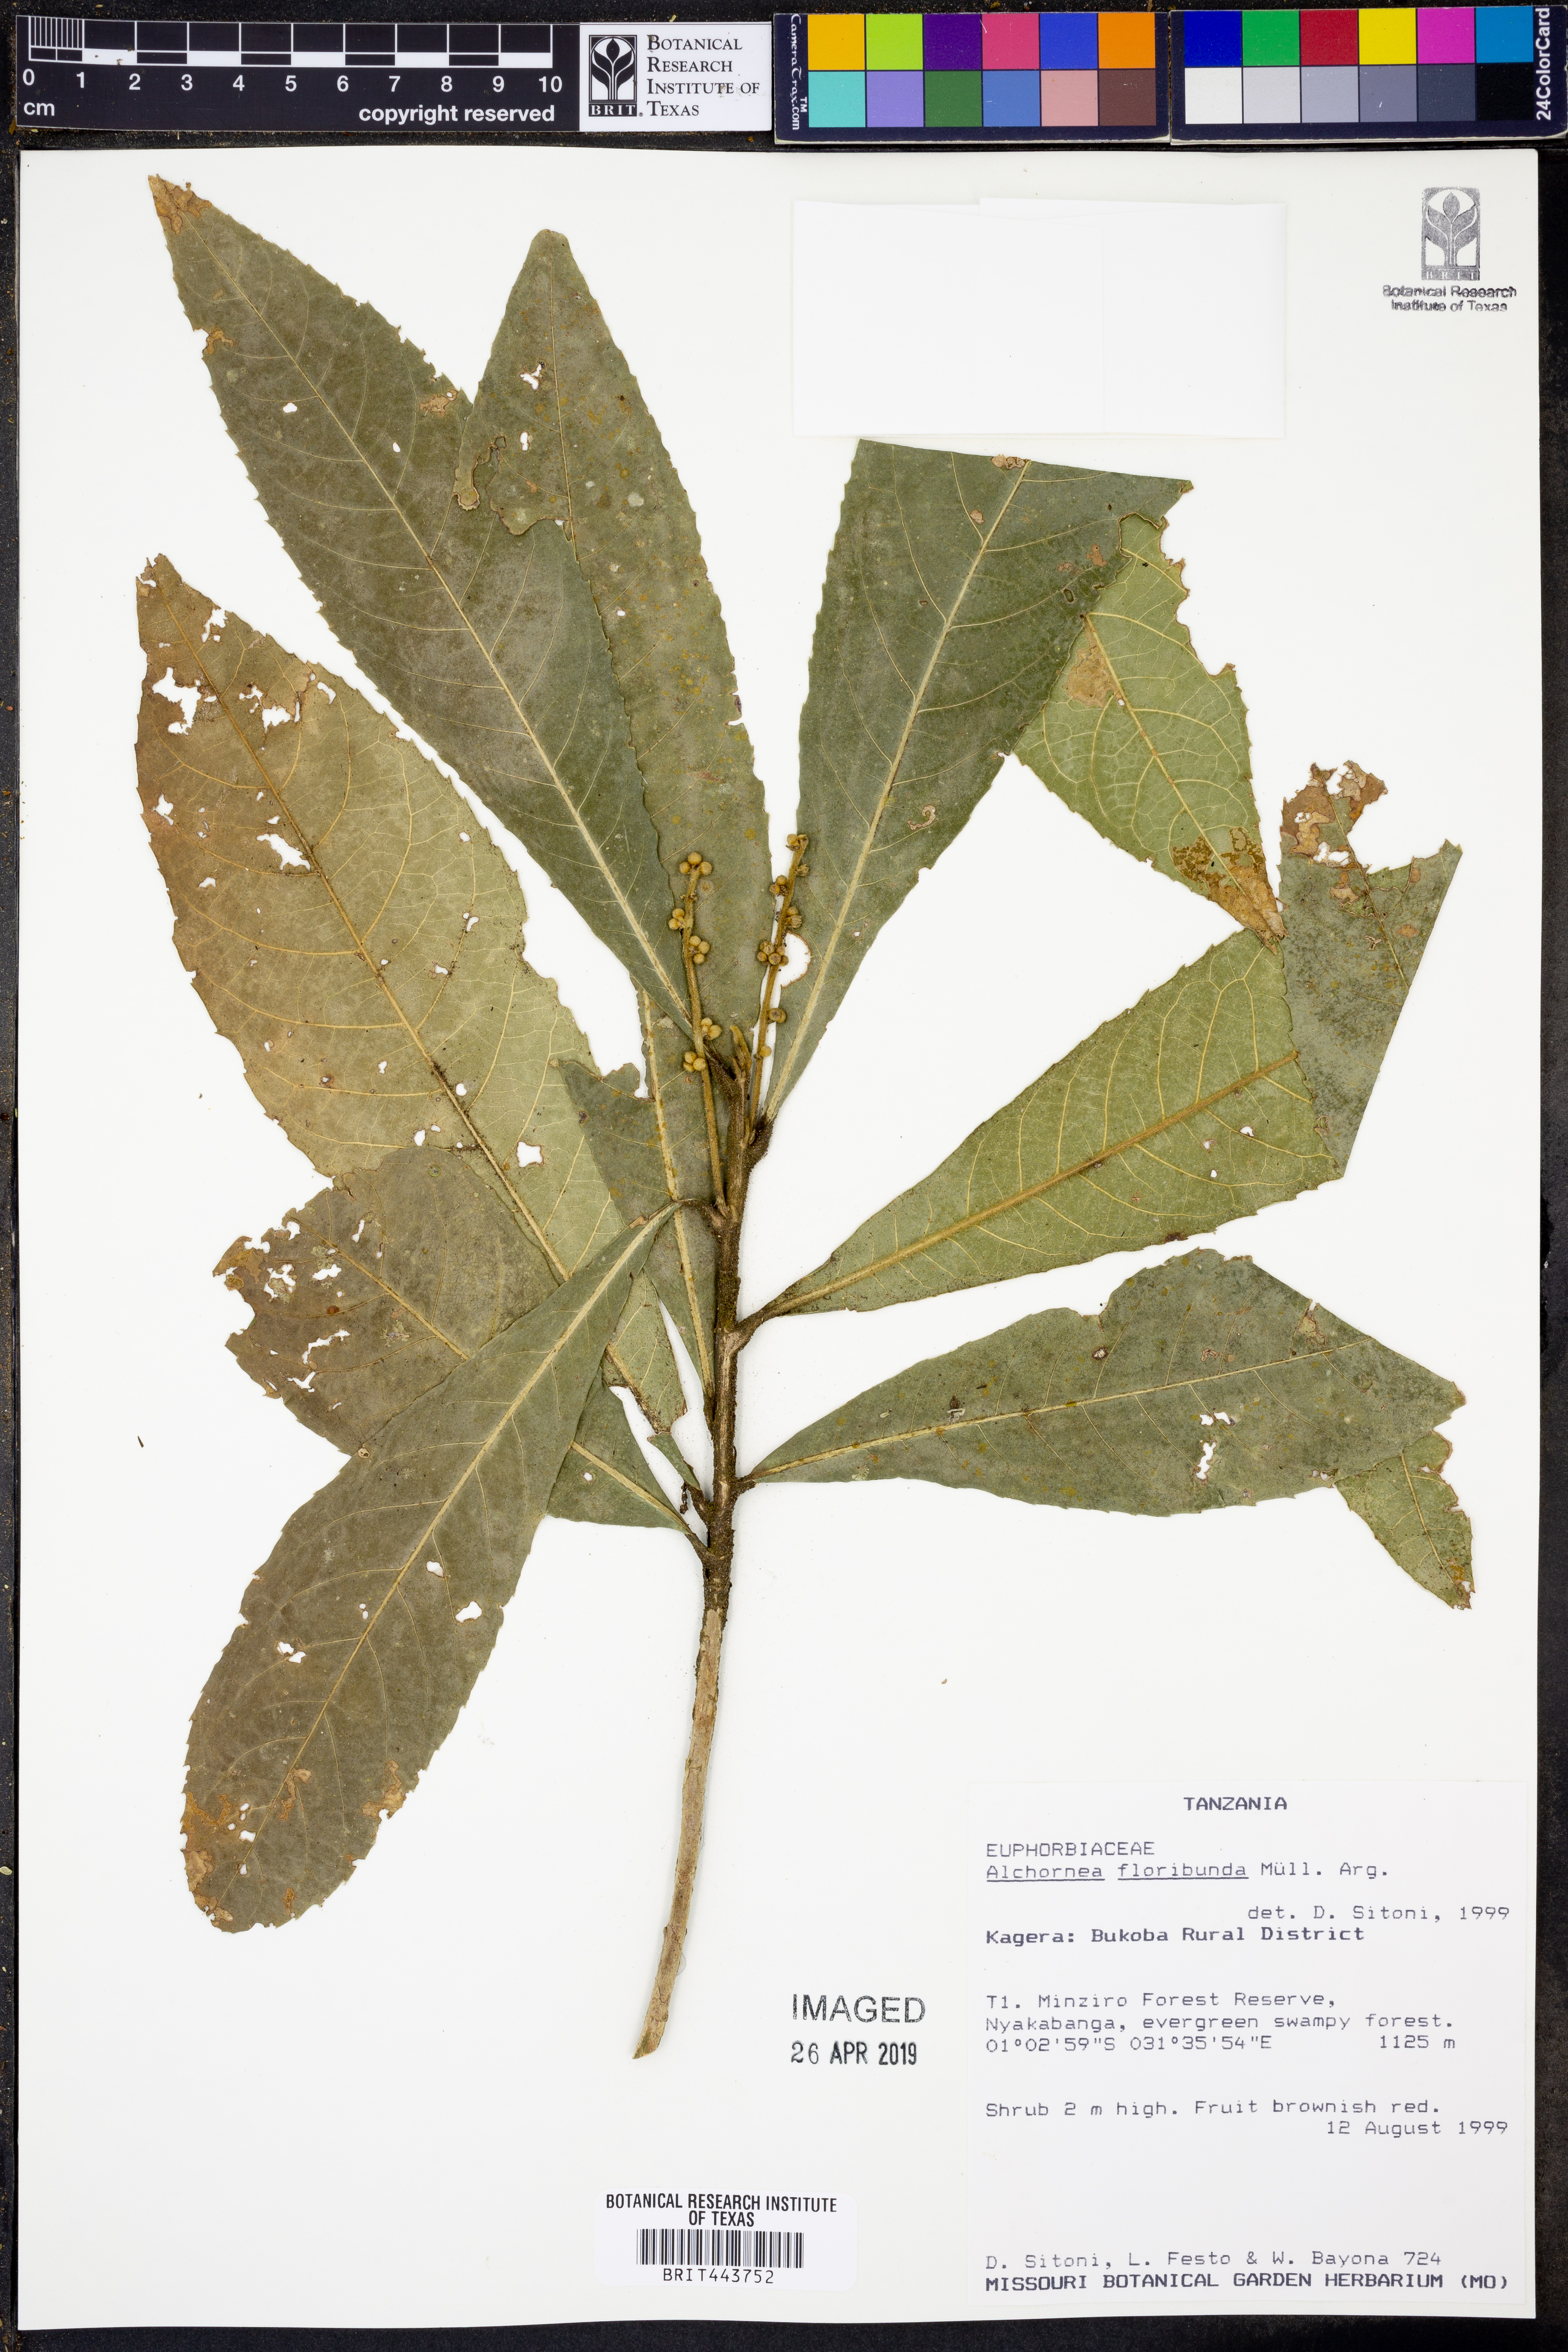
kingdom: Plantae
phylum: Tracheophyta
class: Magnoliopsida
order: Malpighiales
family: Euphorbiaceae
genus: Alchornea
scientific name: Alchornea floribunda
